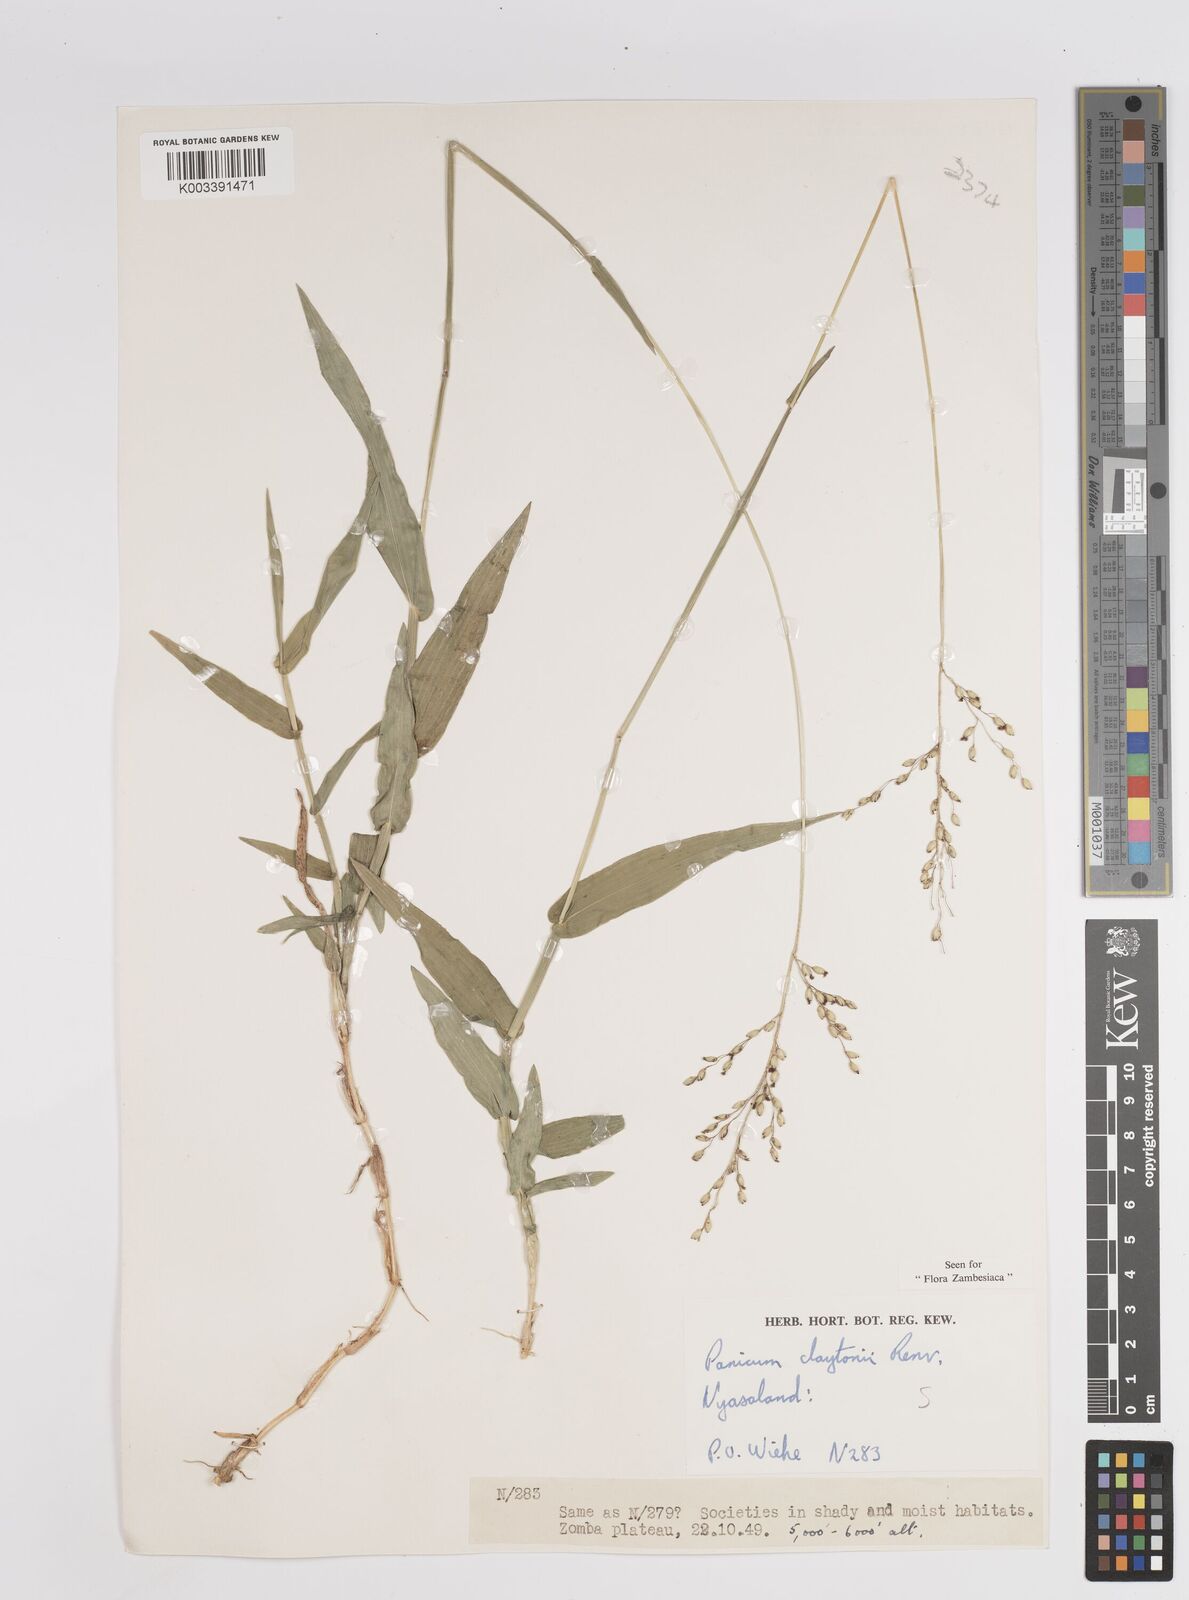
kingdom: Plantae
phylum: Tracheophyta
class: Liliopsida
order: Poales
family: Poaceae
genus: Adenochloa
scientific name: Adenochloa claytonii
